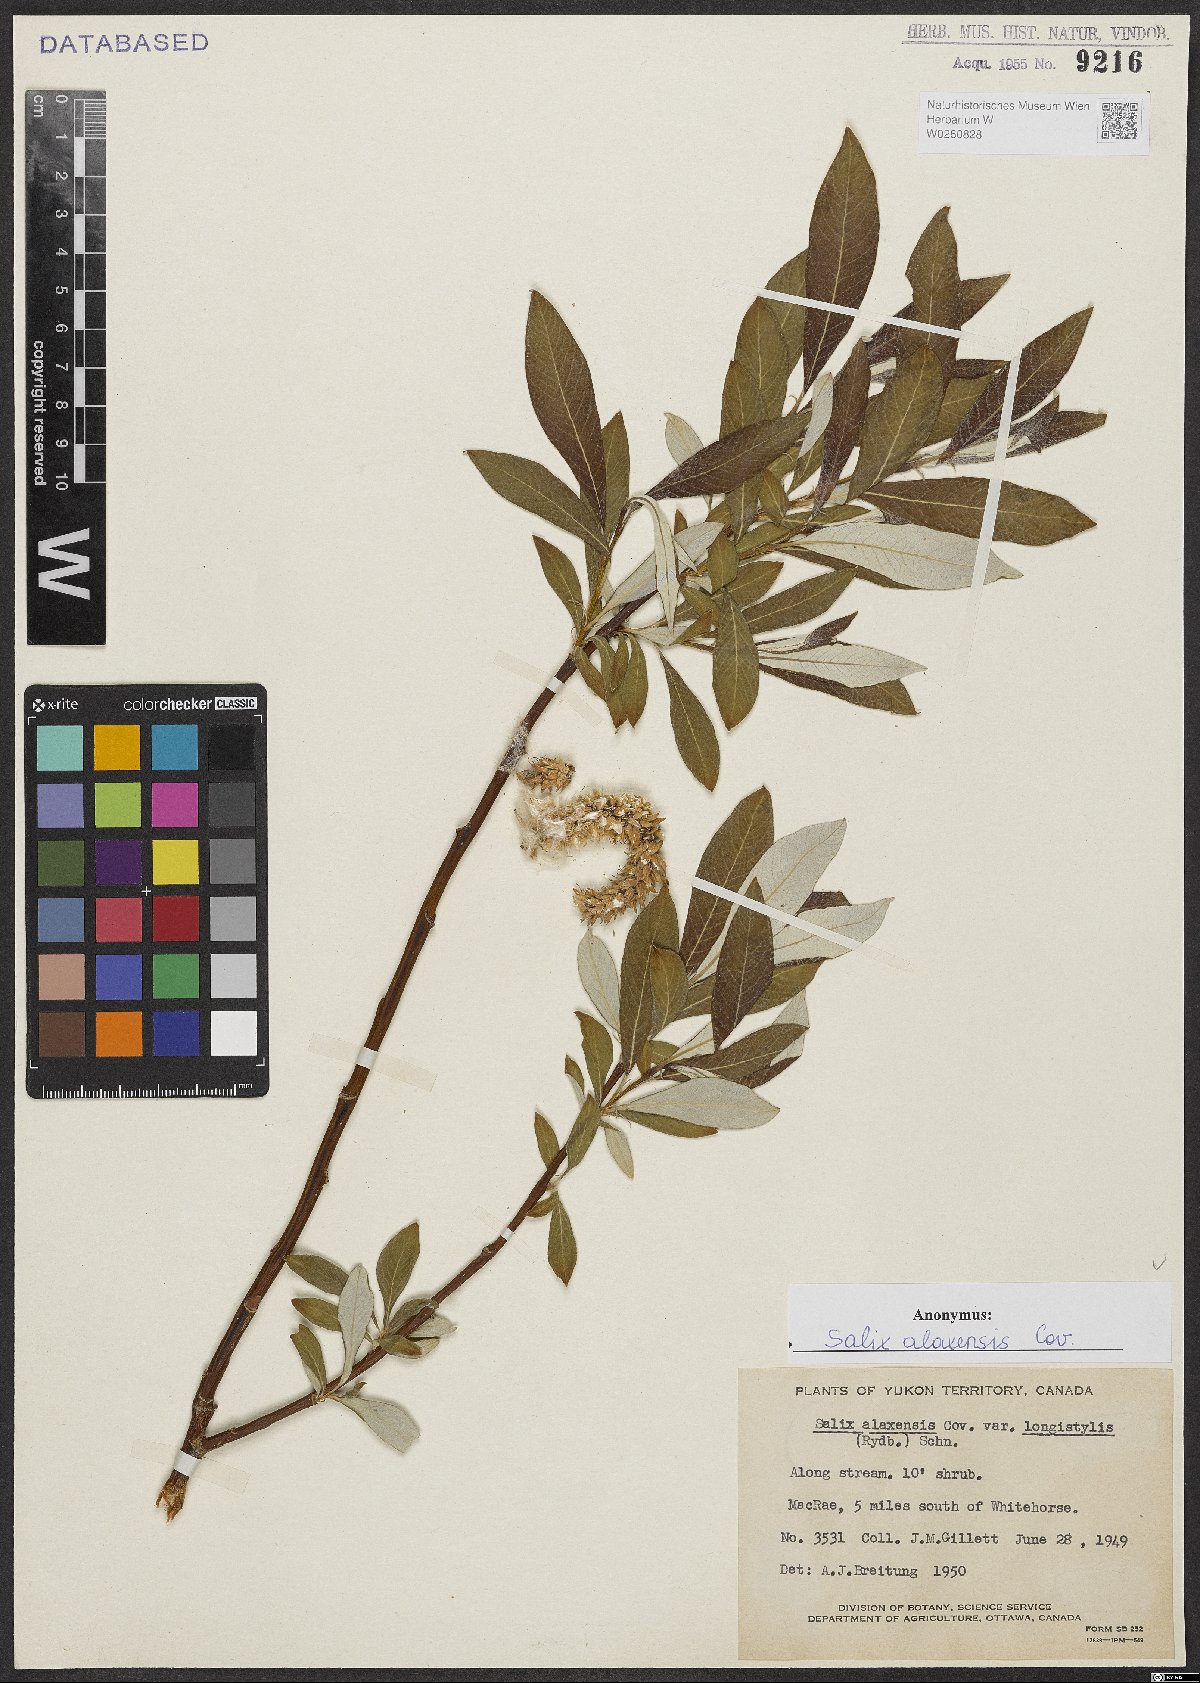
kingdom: Plantae
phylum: Tracheophyta
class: Magnoliopsida
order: Malpighiales
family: Salicaceae
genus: Salix
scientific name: Salix alaxensis
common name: Feltleaf willow
